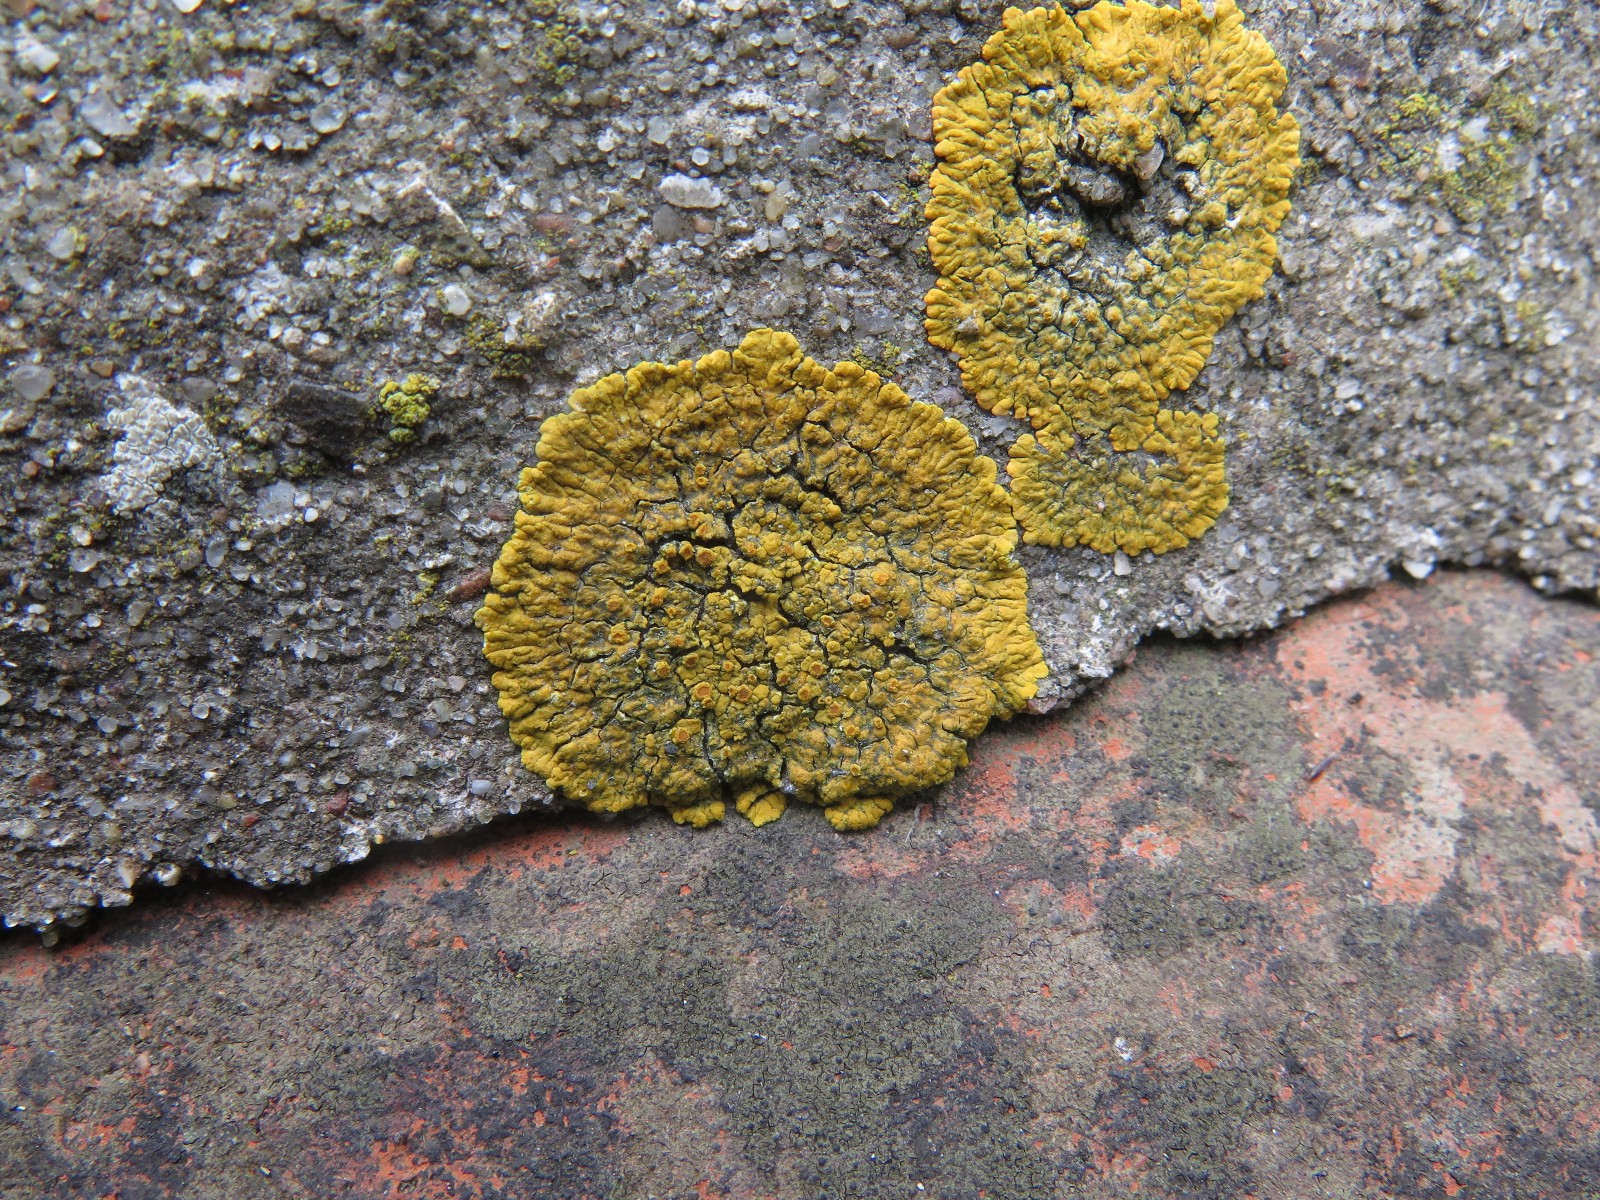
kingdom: Fungi
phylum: Ascomycota
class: Lecanoromycetes
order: Teloschistales
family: Teloschistaceae
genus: Xanthoria
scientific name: Xanthoria parietina
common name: almindelig væggelav
